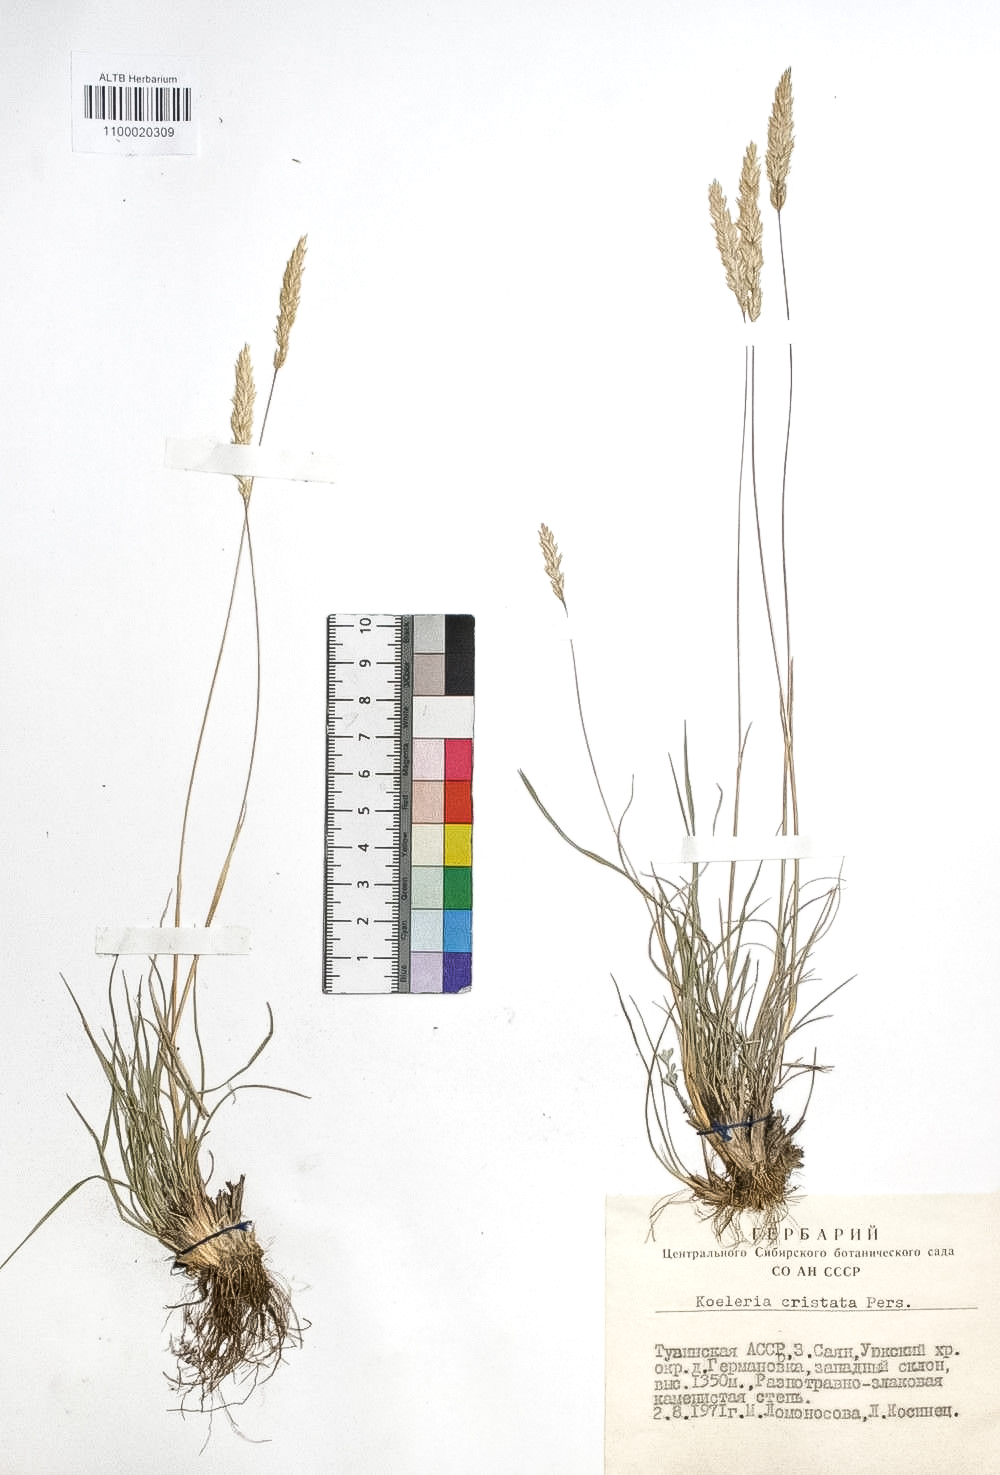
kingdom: Plantae
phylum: Tracheophyta
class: Liliopsida
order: Poales
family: Poaceae
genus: Koeleria
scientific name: Koeleria pyramidata
